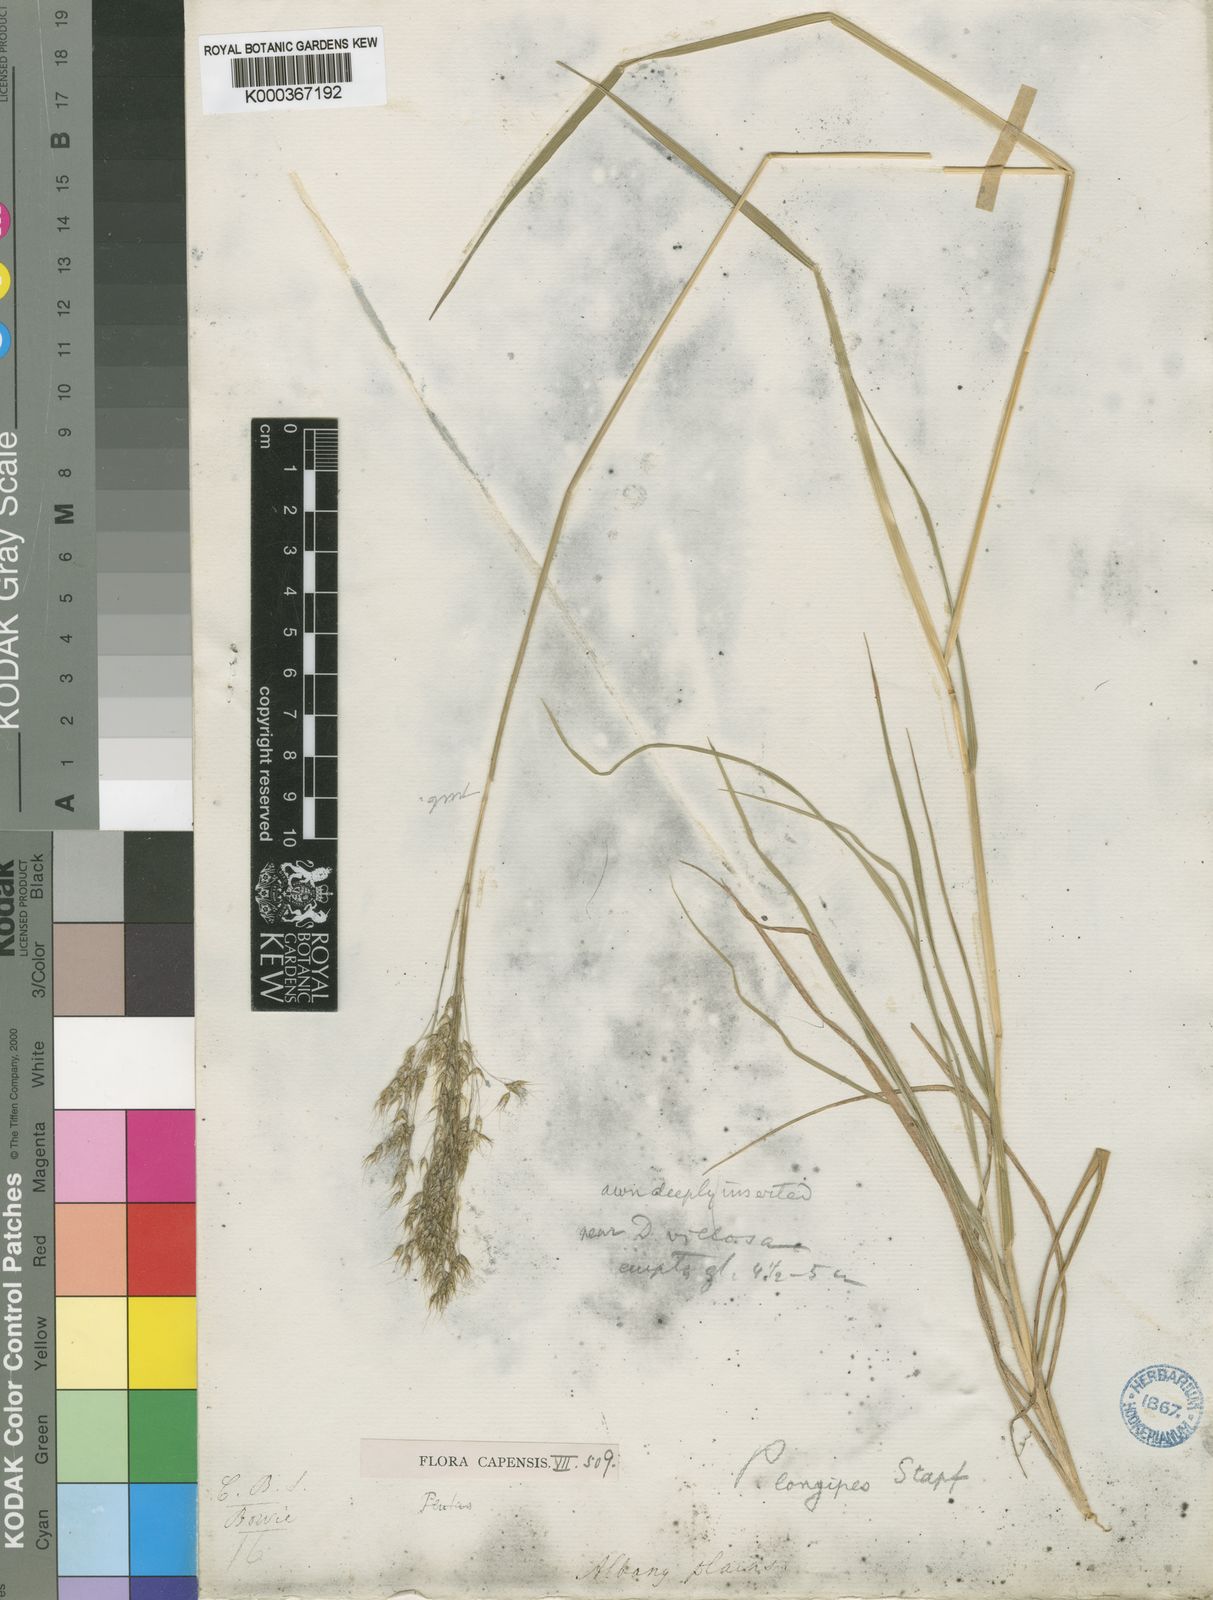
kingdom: Plantae
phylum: Tracheophyta
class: Liliopsida
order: Poales
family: Poaceae
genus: Pentameris
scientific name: Pentameris longipes
